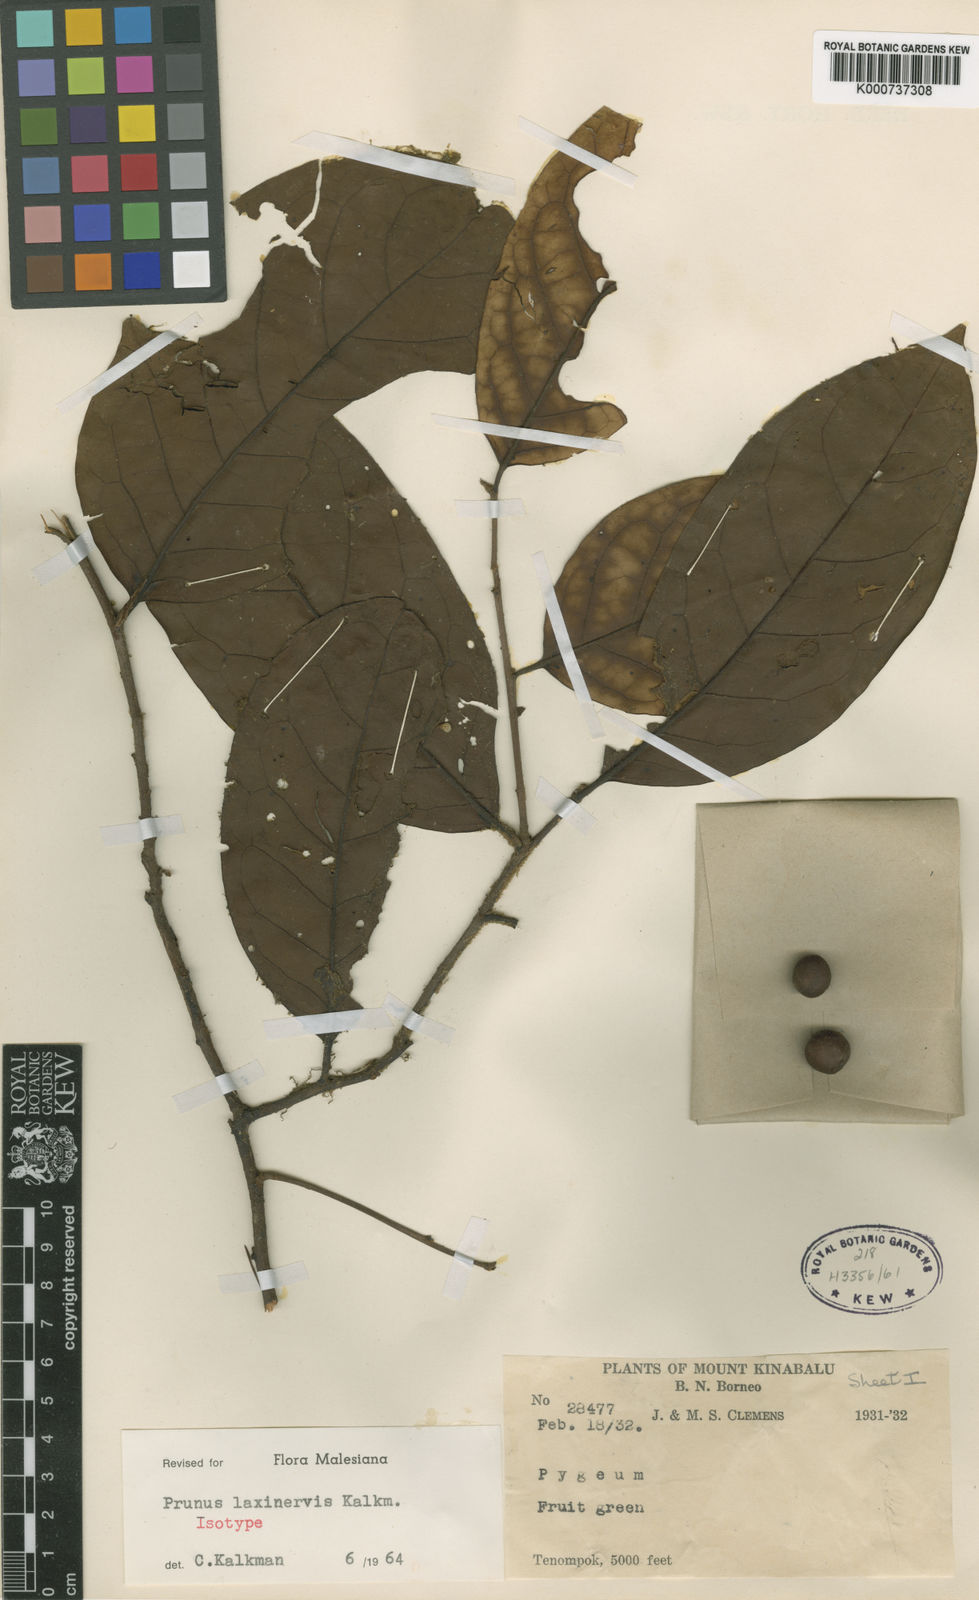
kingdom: Plantae
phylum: Tracheophyta
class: Magnoliopsida
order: Rosales
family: Rosaceae
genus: Prunus
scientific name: Prunus laxinervis
